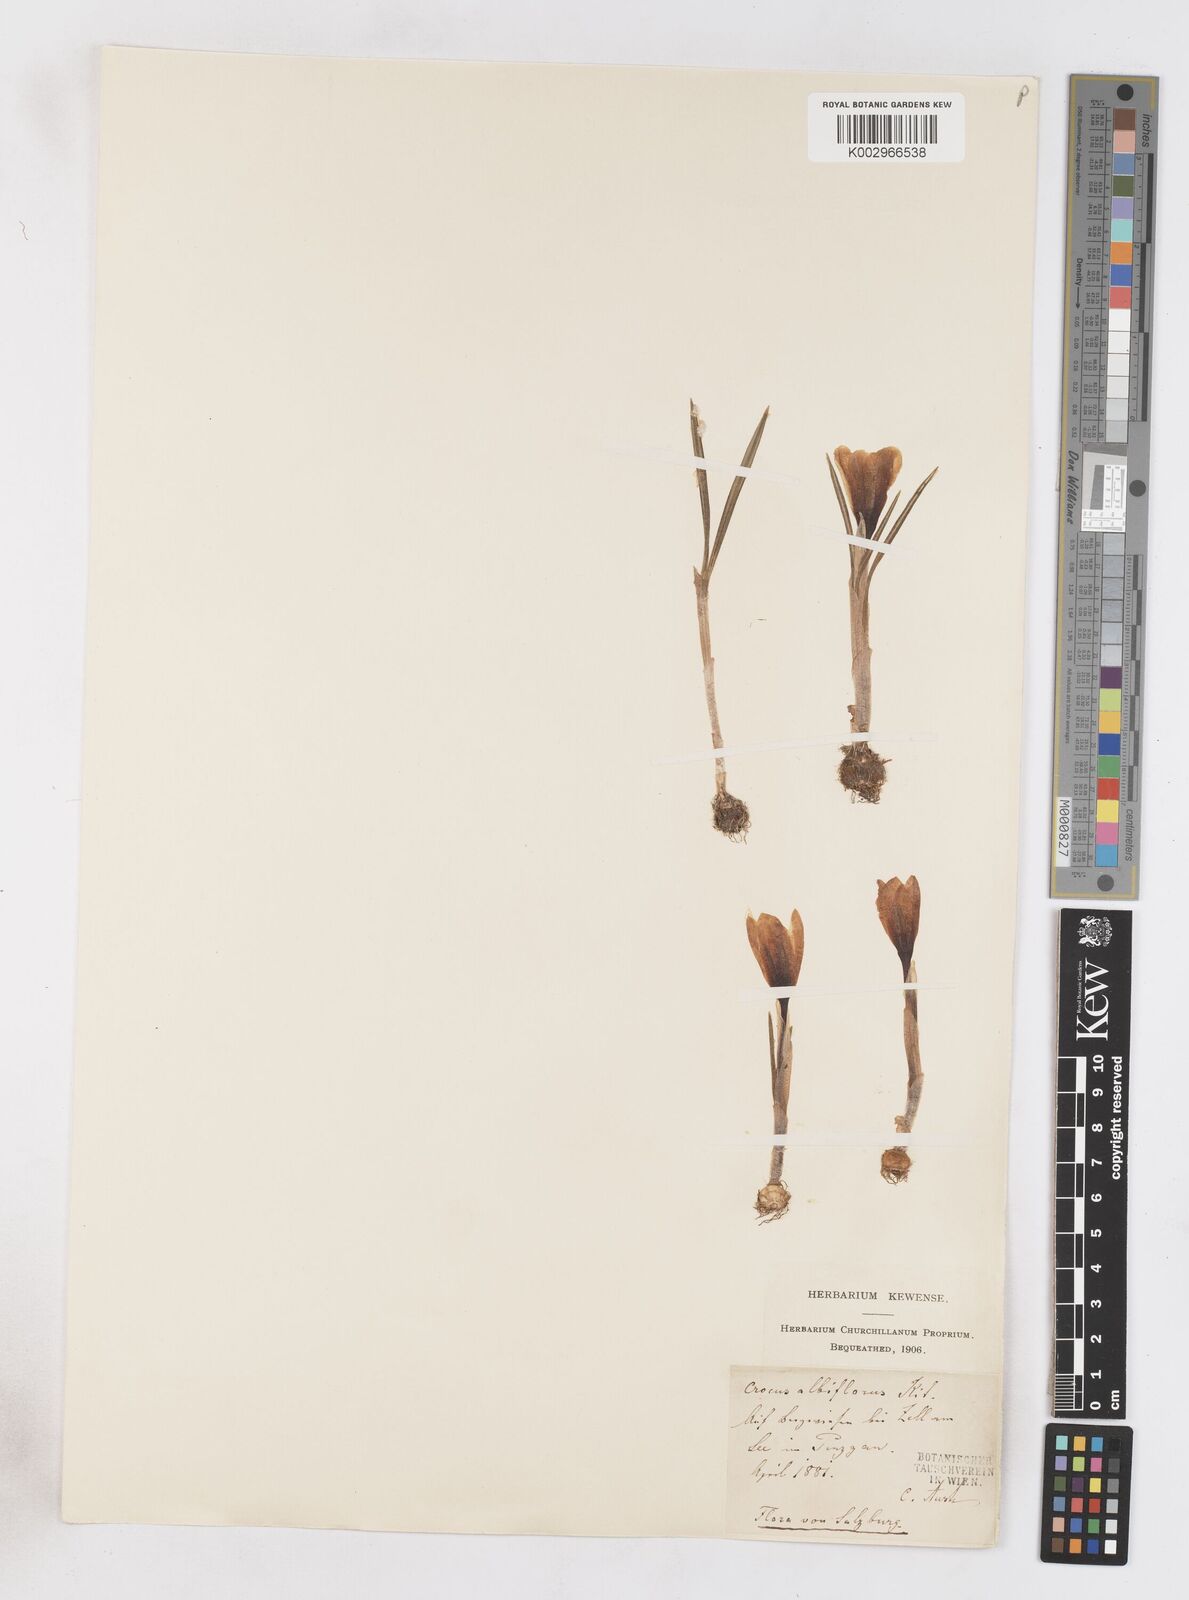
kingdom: Plantae
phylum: Tracheophyta
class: Liliopsida
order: Asparagales
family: Iridaceae
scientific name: Iridaceae
